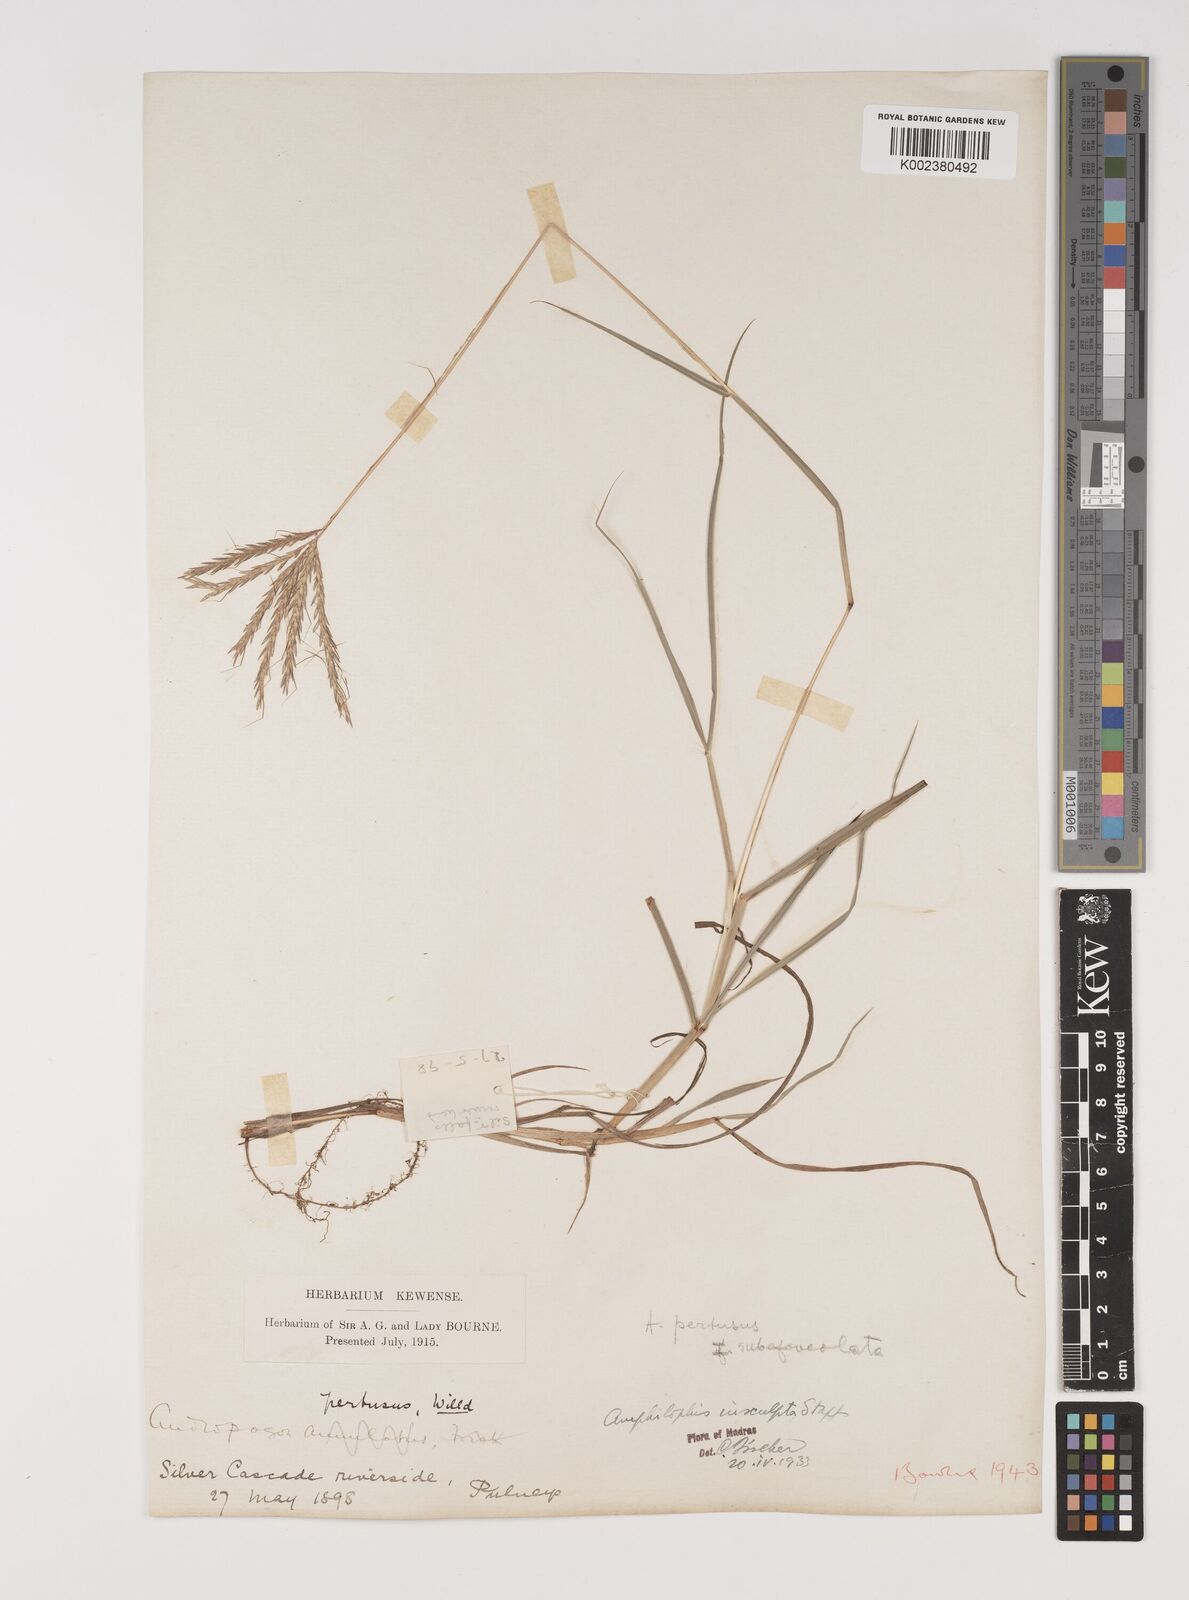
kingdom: Plantae
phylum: Tracheophyta
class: Liliopsida
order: Poales
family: Poaceae
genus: Bothriochloa
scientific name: Bothriochloa insculpta
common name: Creeping-bluegrass
